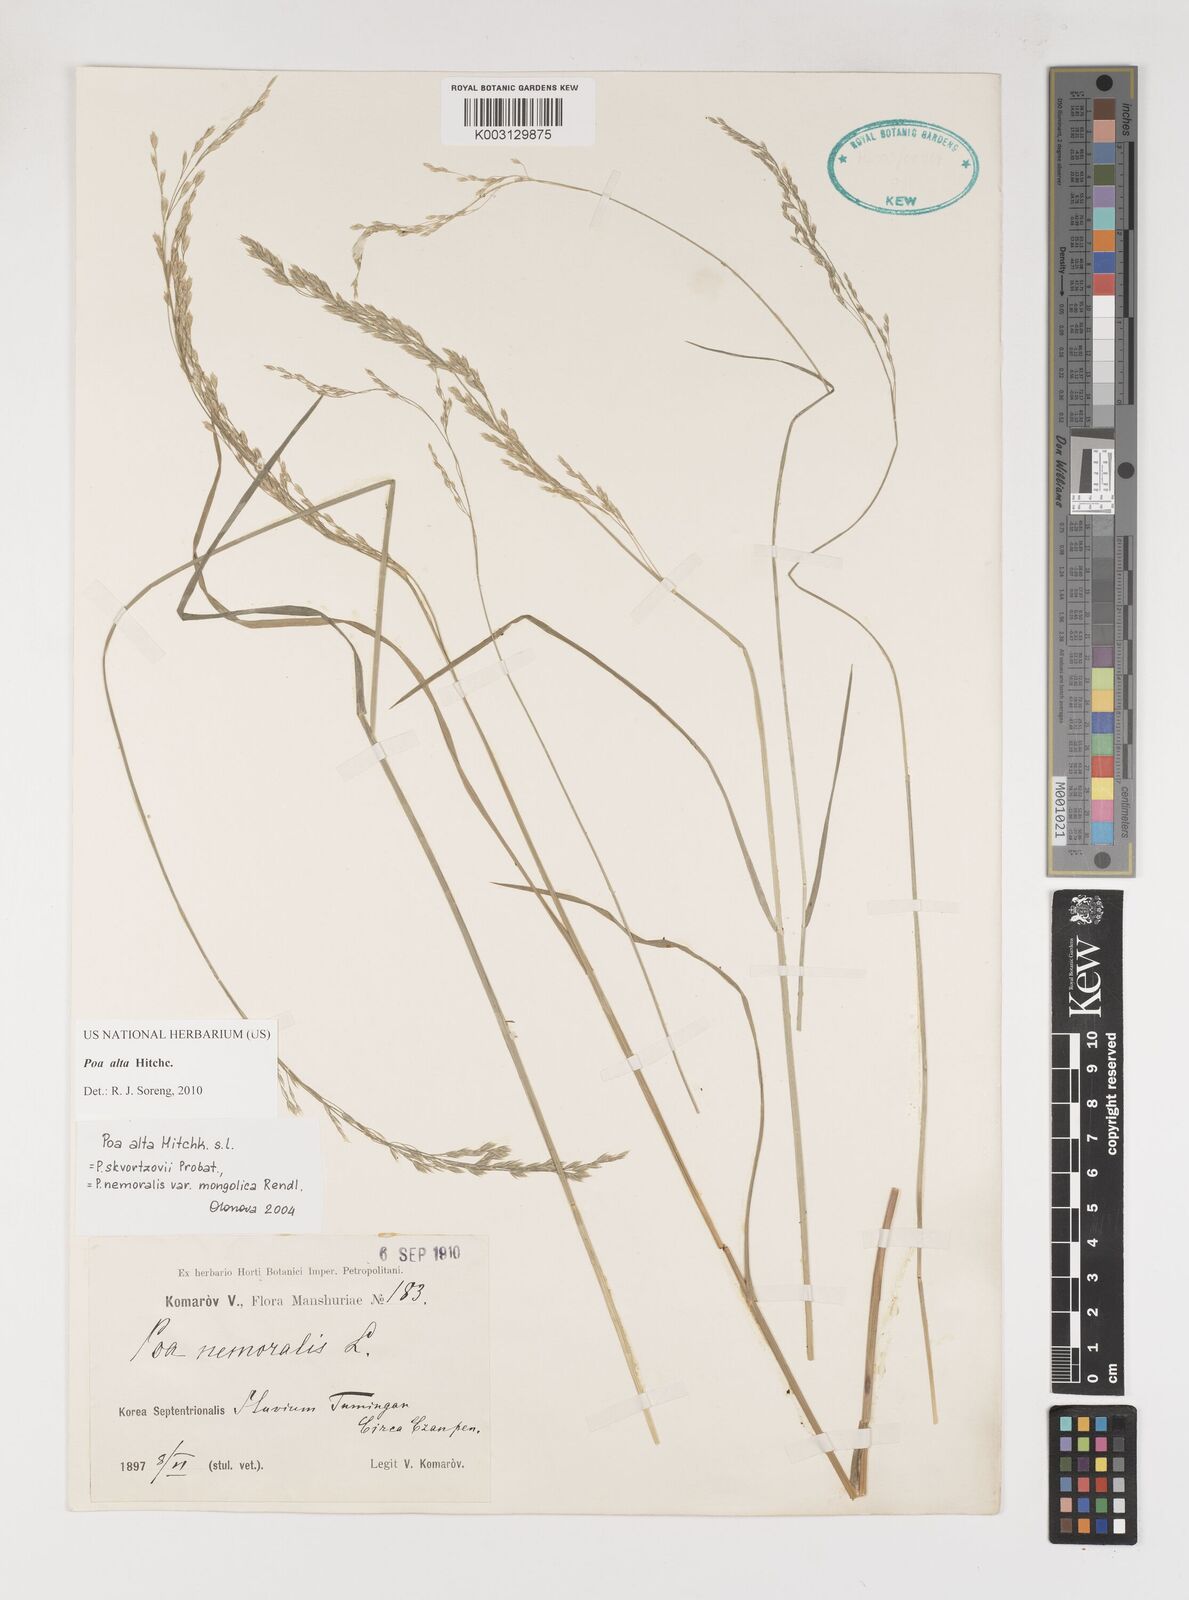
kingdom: Plantae
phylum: Tracheophyta
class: Liliopsida
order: Poales
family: Poaceae
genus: Poa
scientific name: Poa alta
